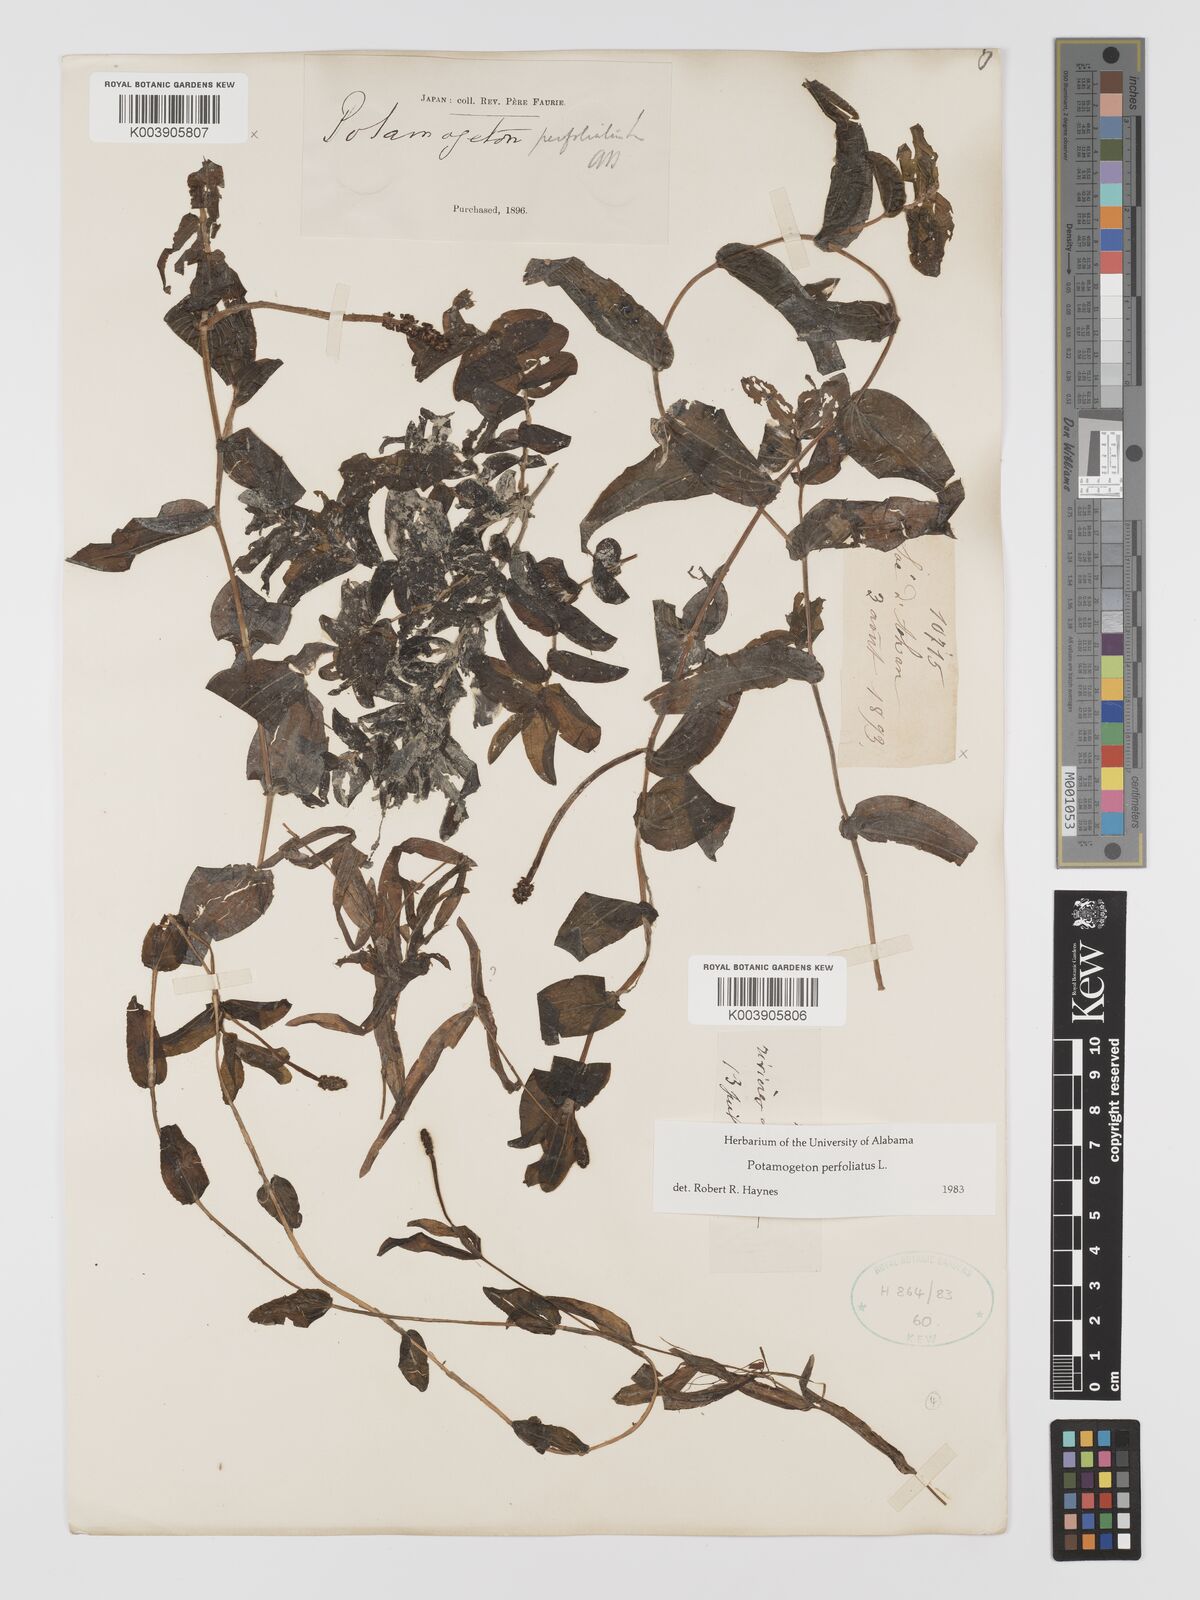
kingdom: Plantae
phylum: Tracheophyta
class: Liliopsida
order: Alismatales
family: Potamogetonaceae
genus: Potamogeton
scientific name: Potamogeton perfoliatus
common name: Perfoliate pondweed
